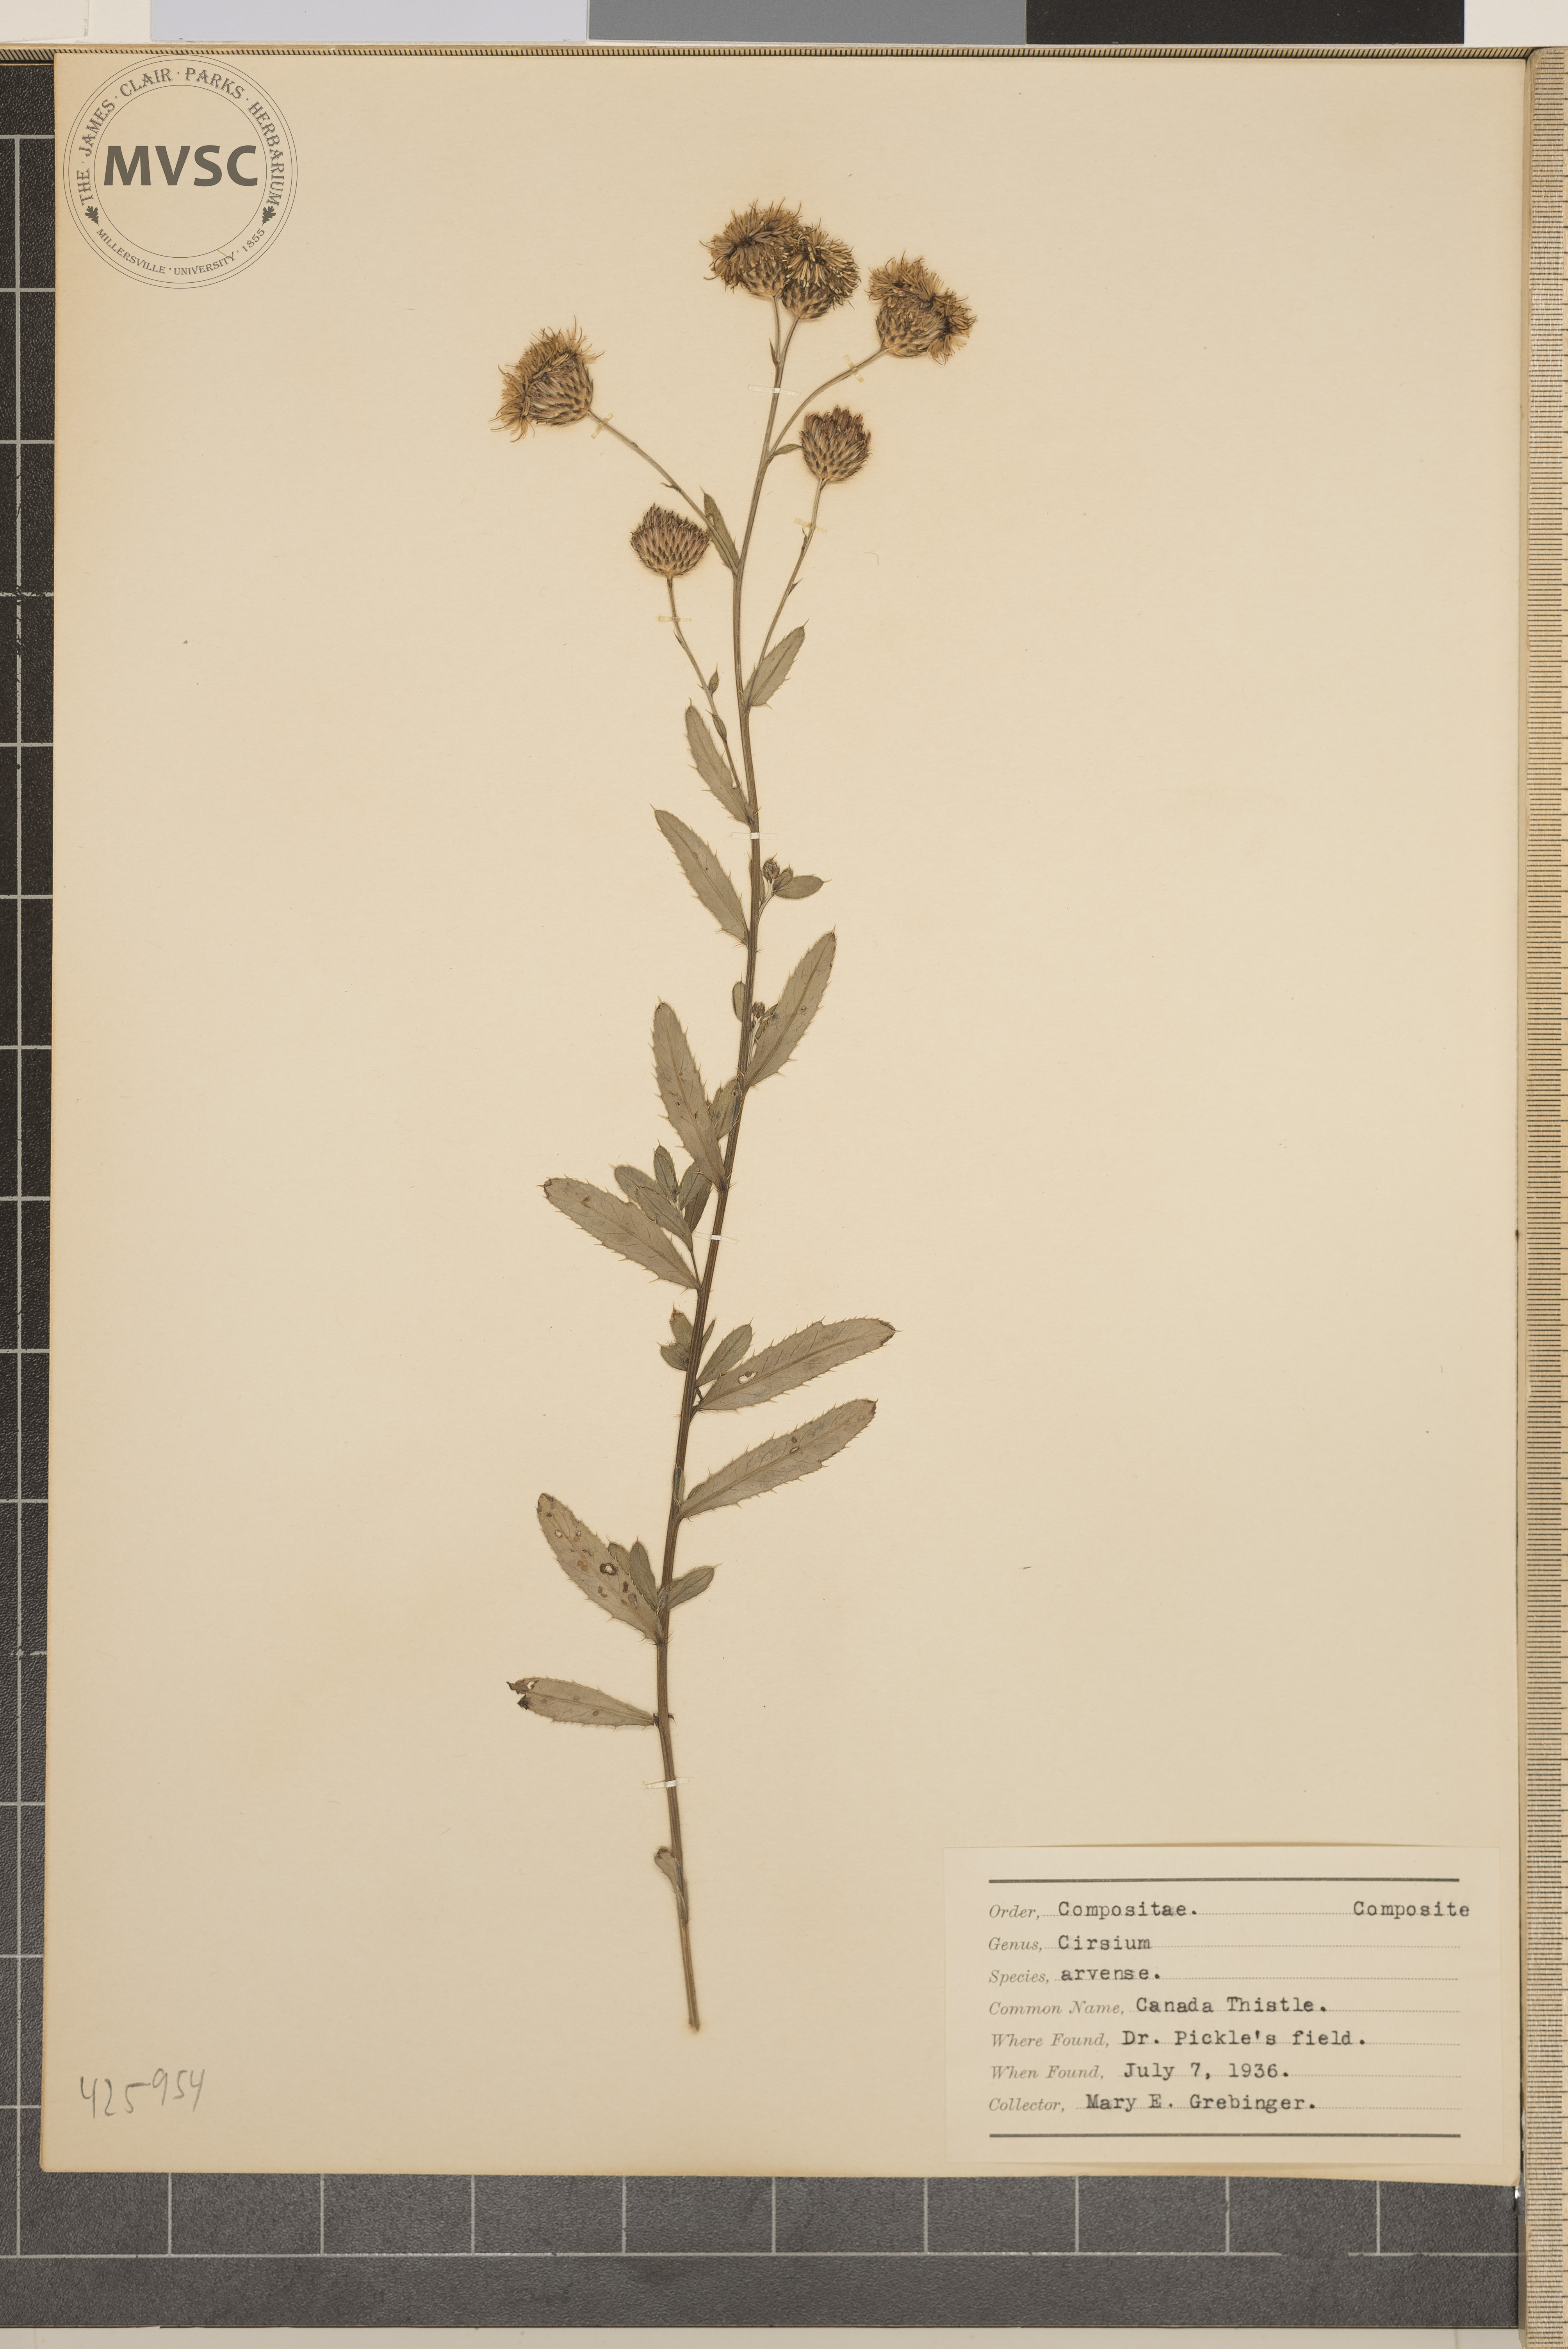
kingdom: Plantae
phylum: Tracheophyta
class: Magnoliopsida
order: Asterales
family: Asteraceae
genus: Cirsium
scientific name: Cirsium arvense
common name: Canada thistle
